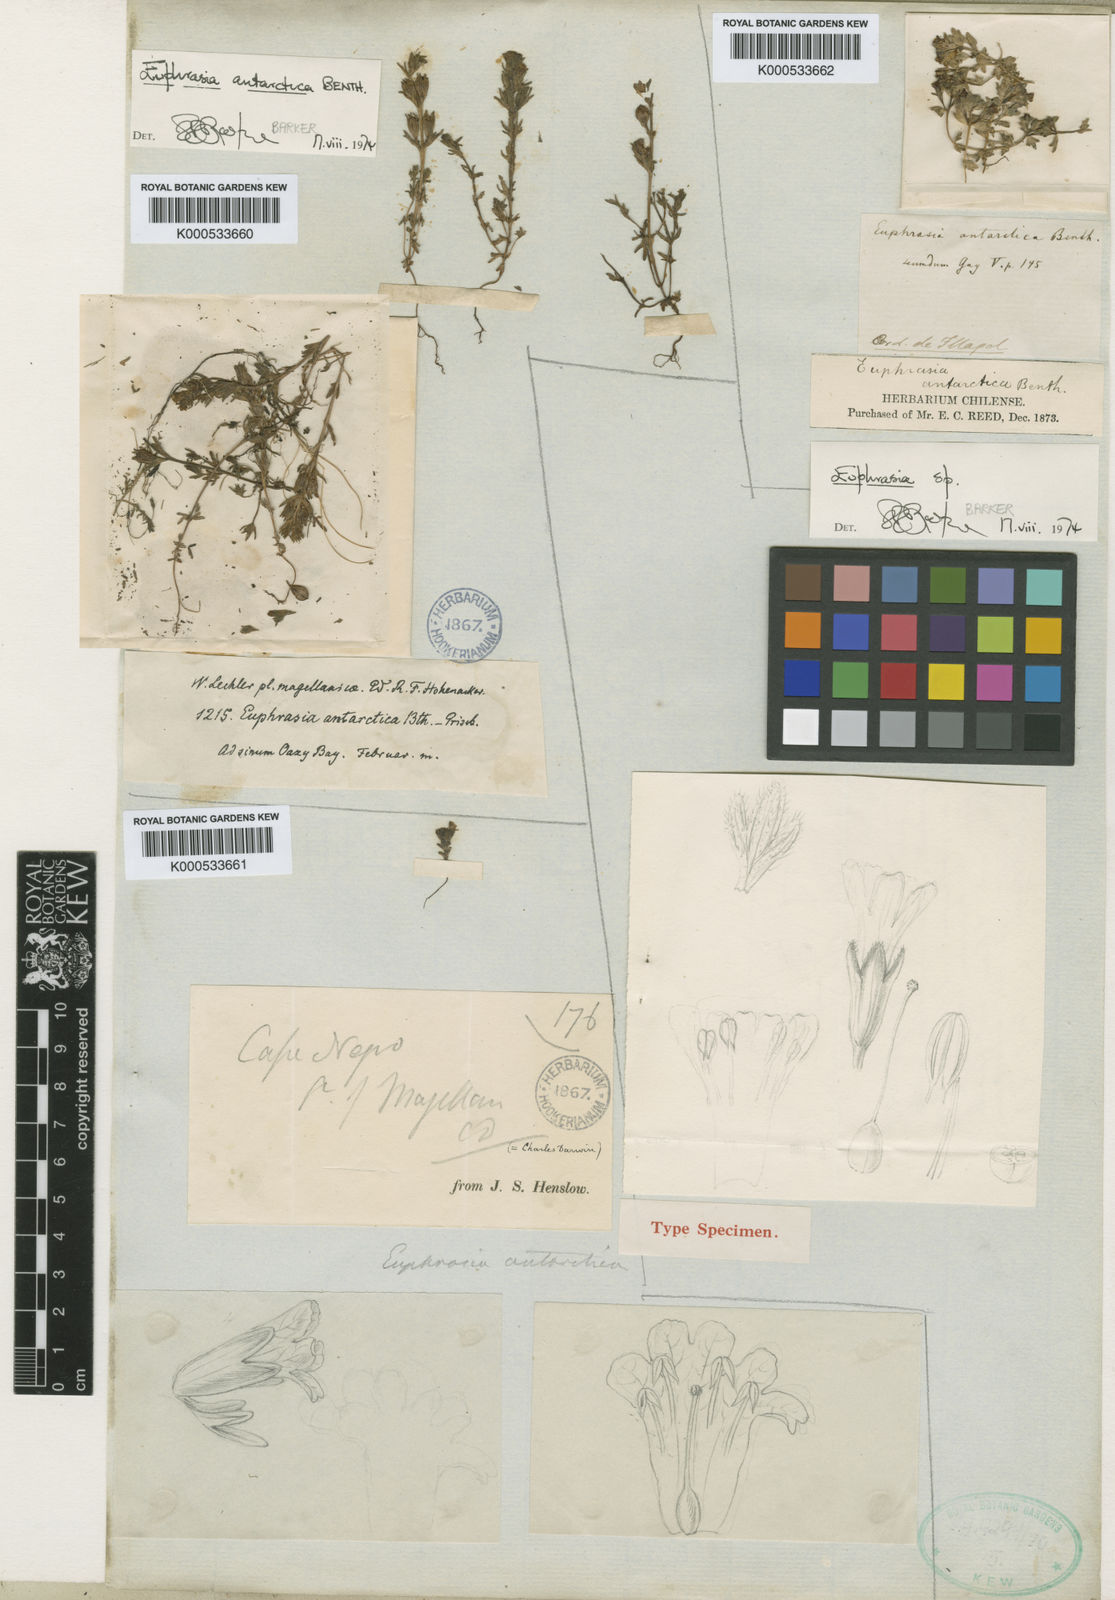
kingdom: Plantae
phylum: Tracheophyta
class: Magnoliopsida
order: Lamiales
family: Orobanchaceae
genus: Euphrasia
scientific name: Euphrasia antarctica
